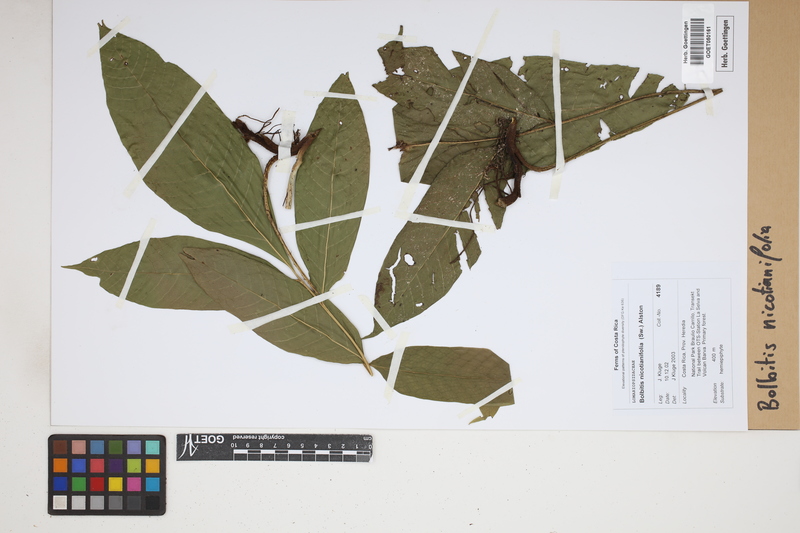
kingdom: Plantae
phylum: Tracheophyta
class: Polypodiopsida
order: Polypodiales
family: Dryopteridaceae
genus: Mickelia
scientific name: Mickelia nicotianifolia
